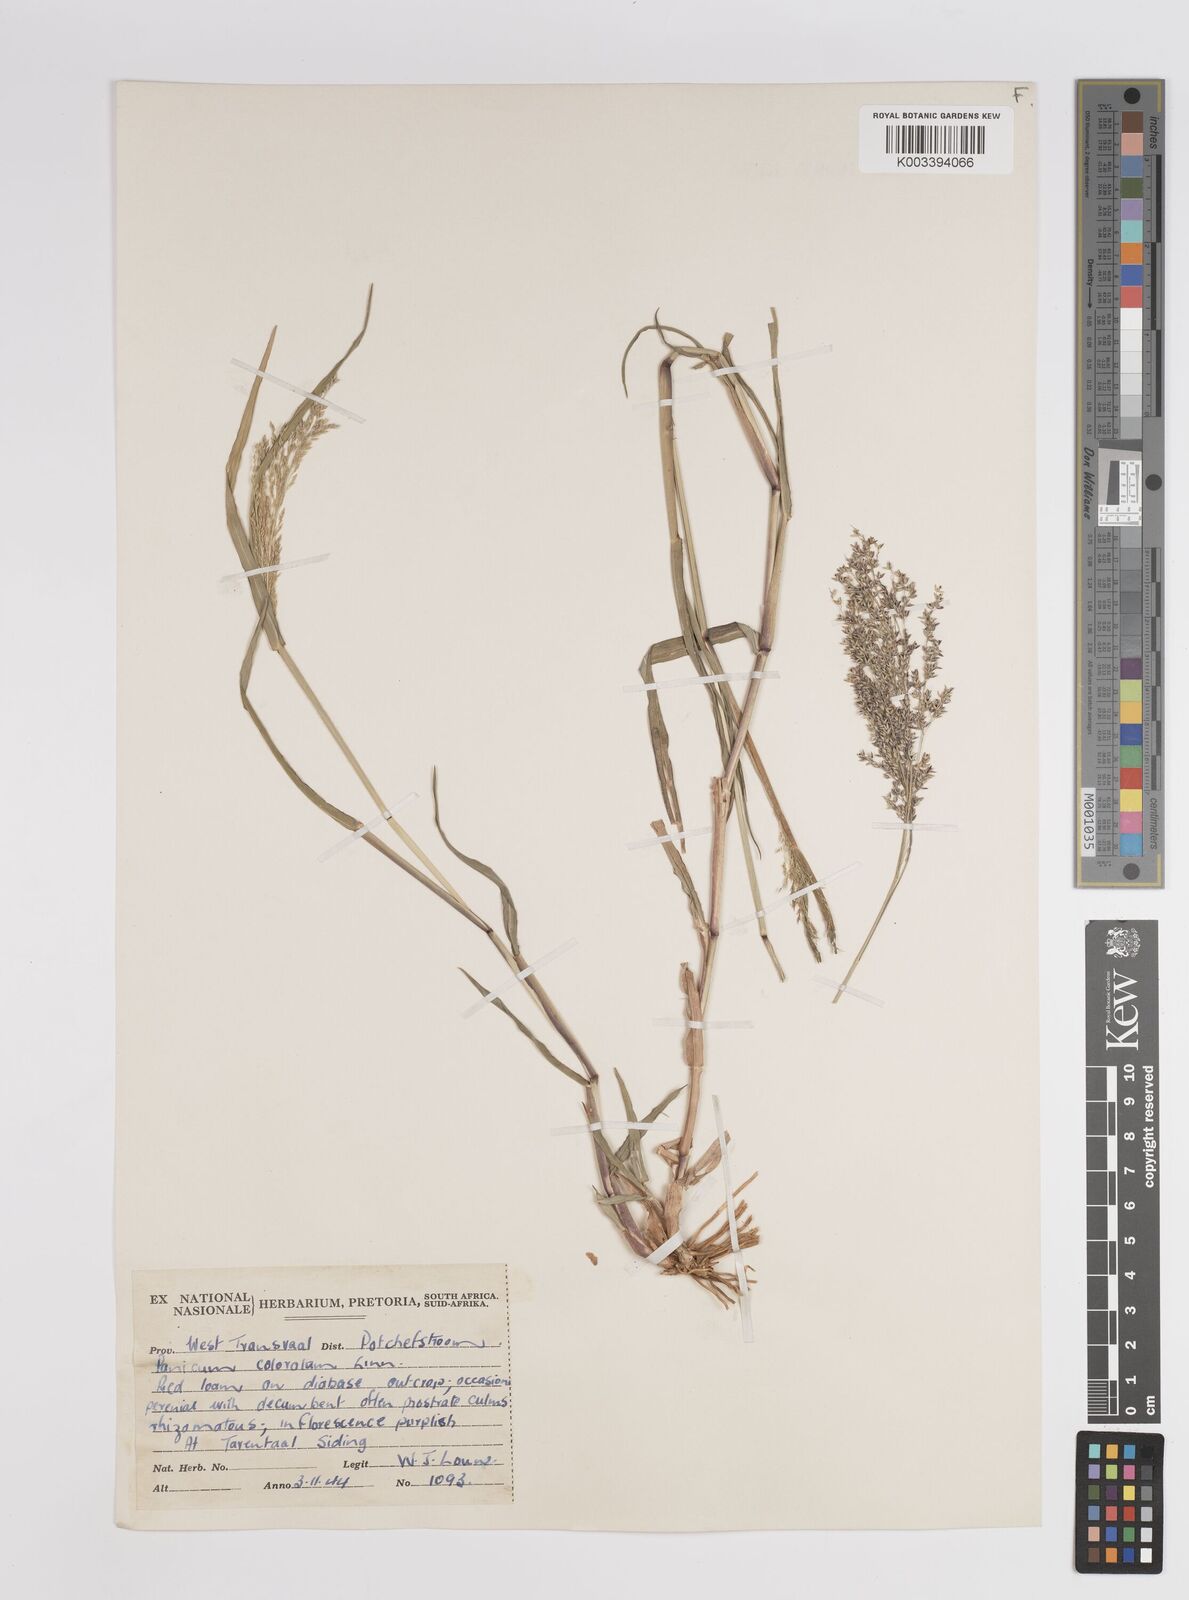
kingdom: Plantae
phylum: Tracheophyta
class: Liliopsida
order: Poales
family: Poaceae
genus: Panicum
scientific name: Panicum coloratum
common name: Kleingrass
